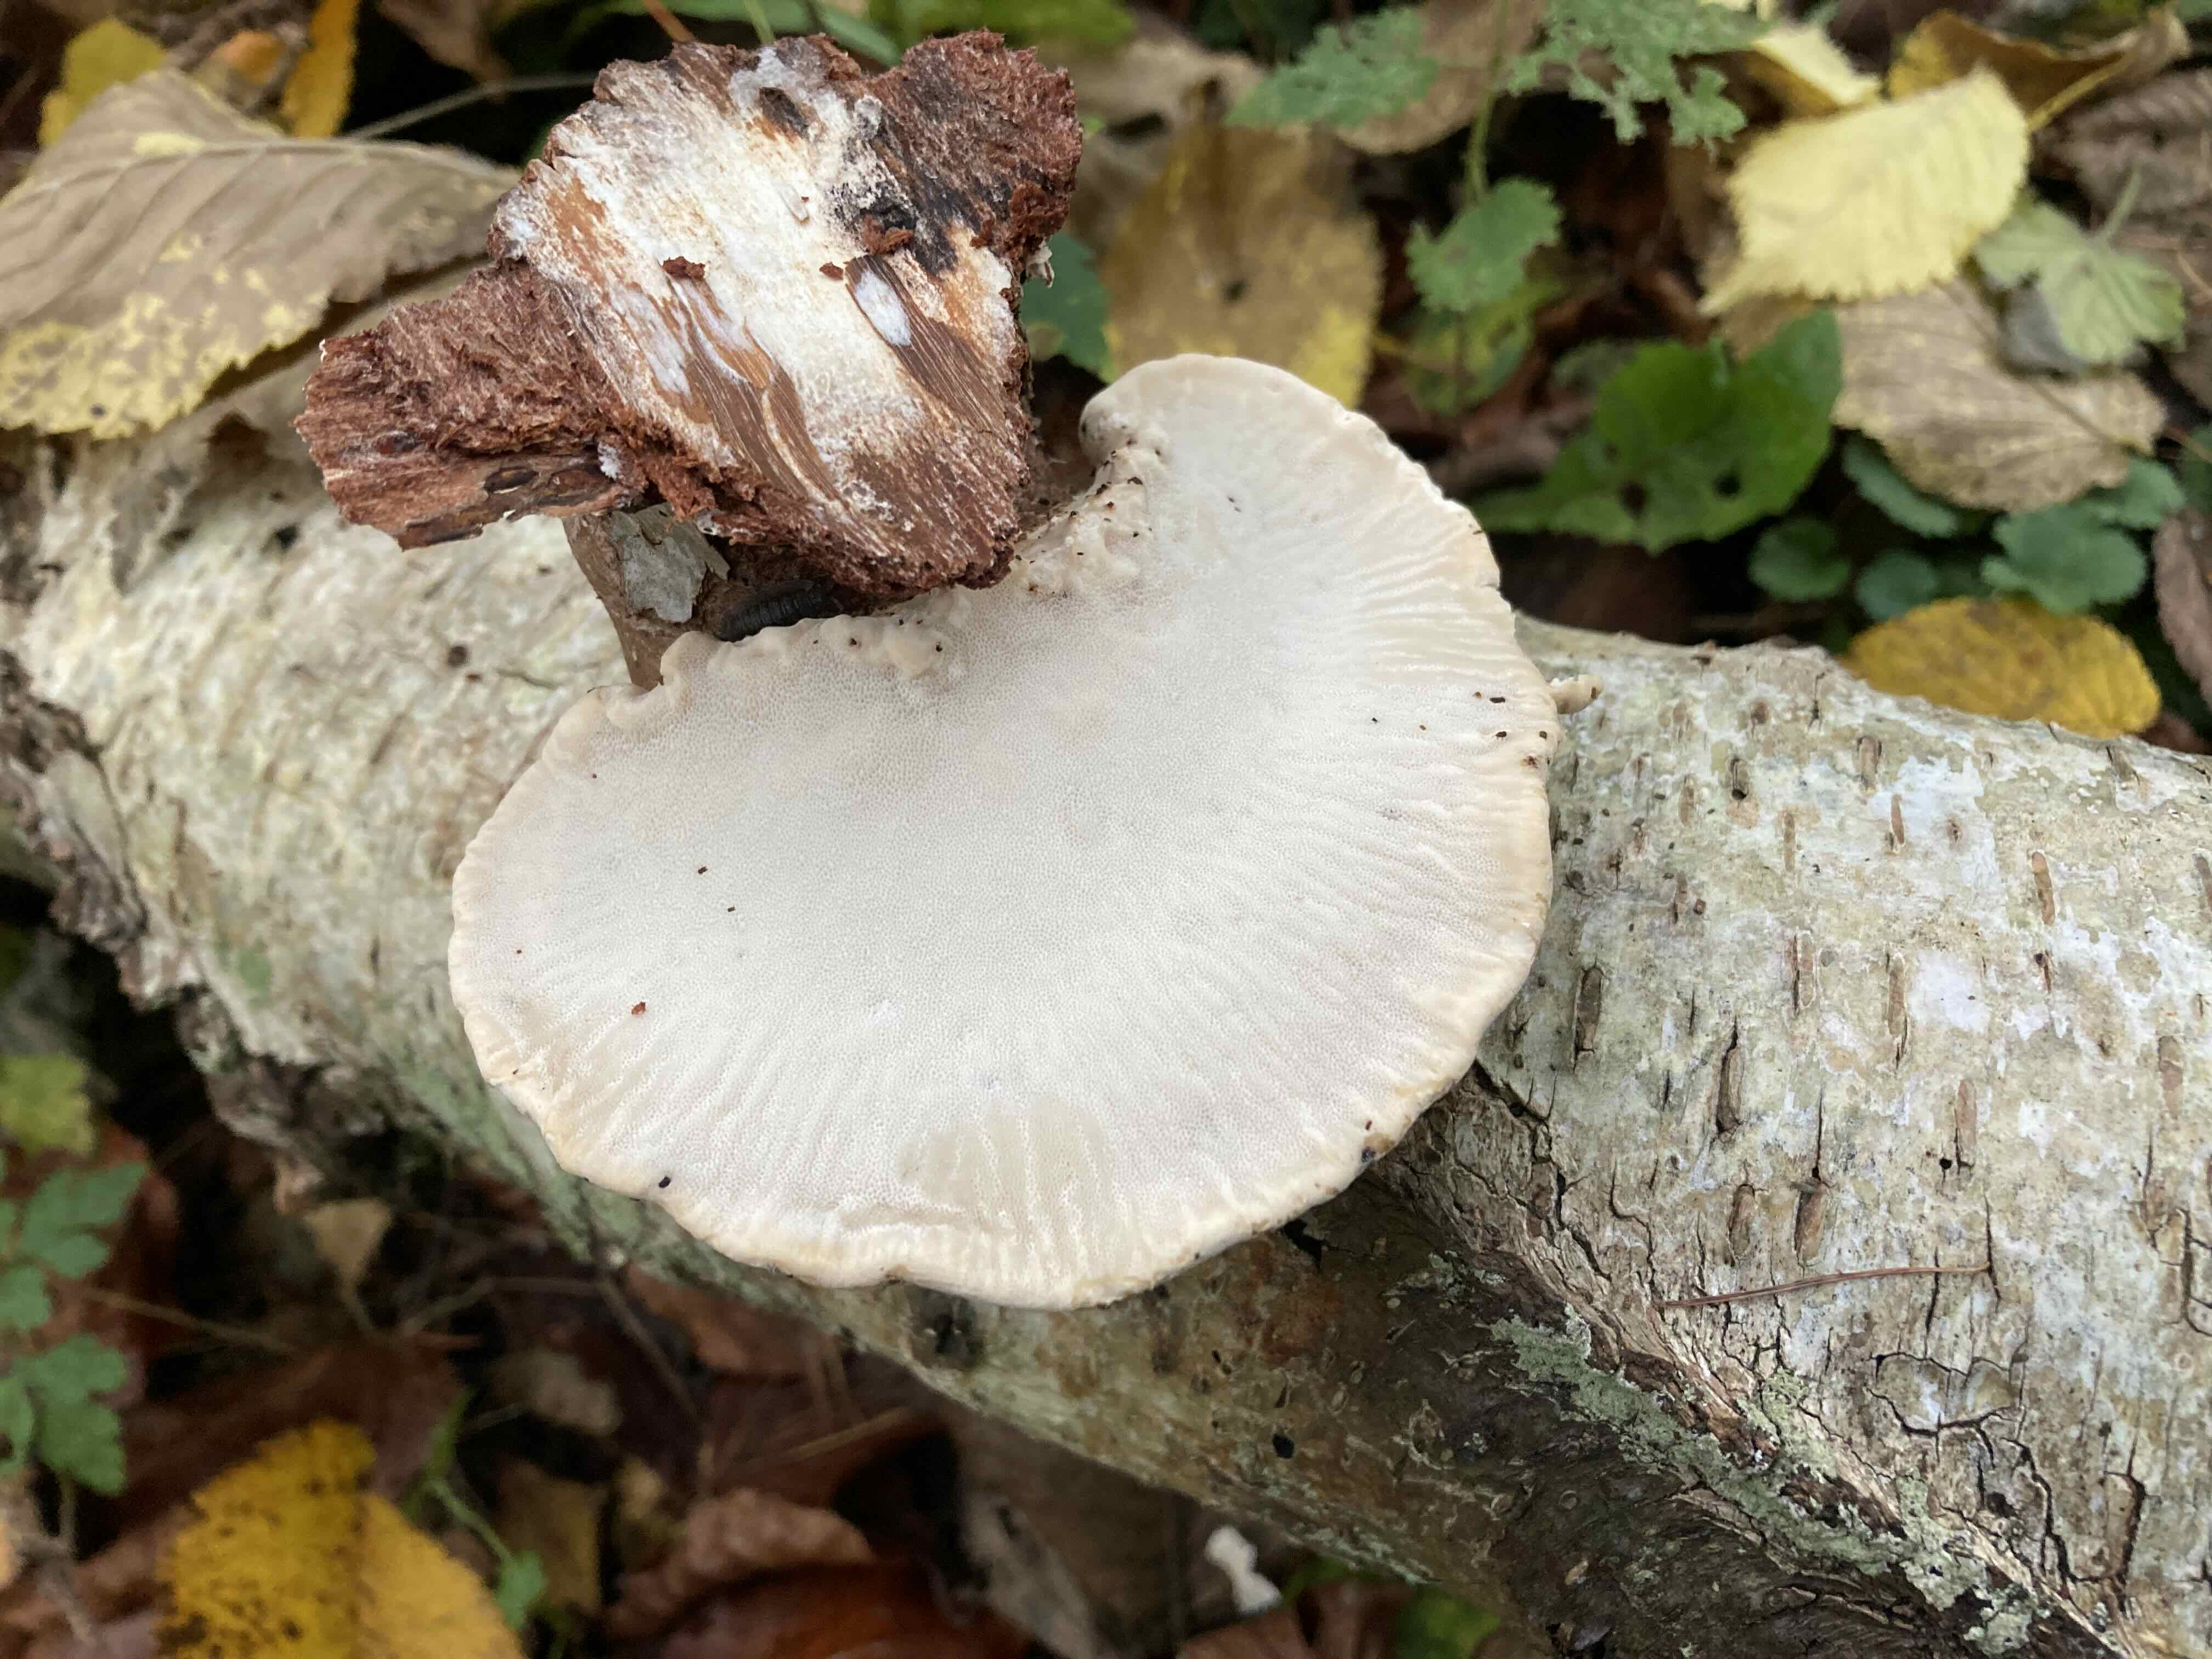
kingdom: Fungi
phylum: Basidiomycota
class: Agaricomycetes
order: Polyporales
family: Fomitopsidaceae
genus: Fomitopsis
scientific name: Fomitopsis betulina
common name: birkeporesvamp
